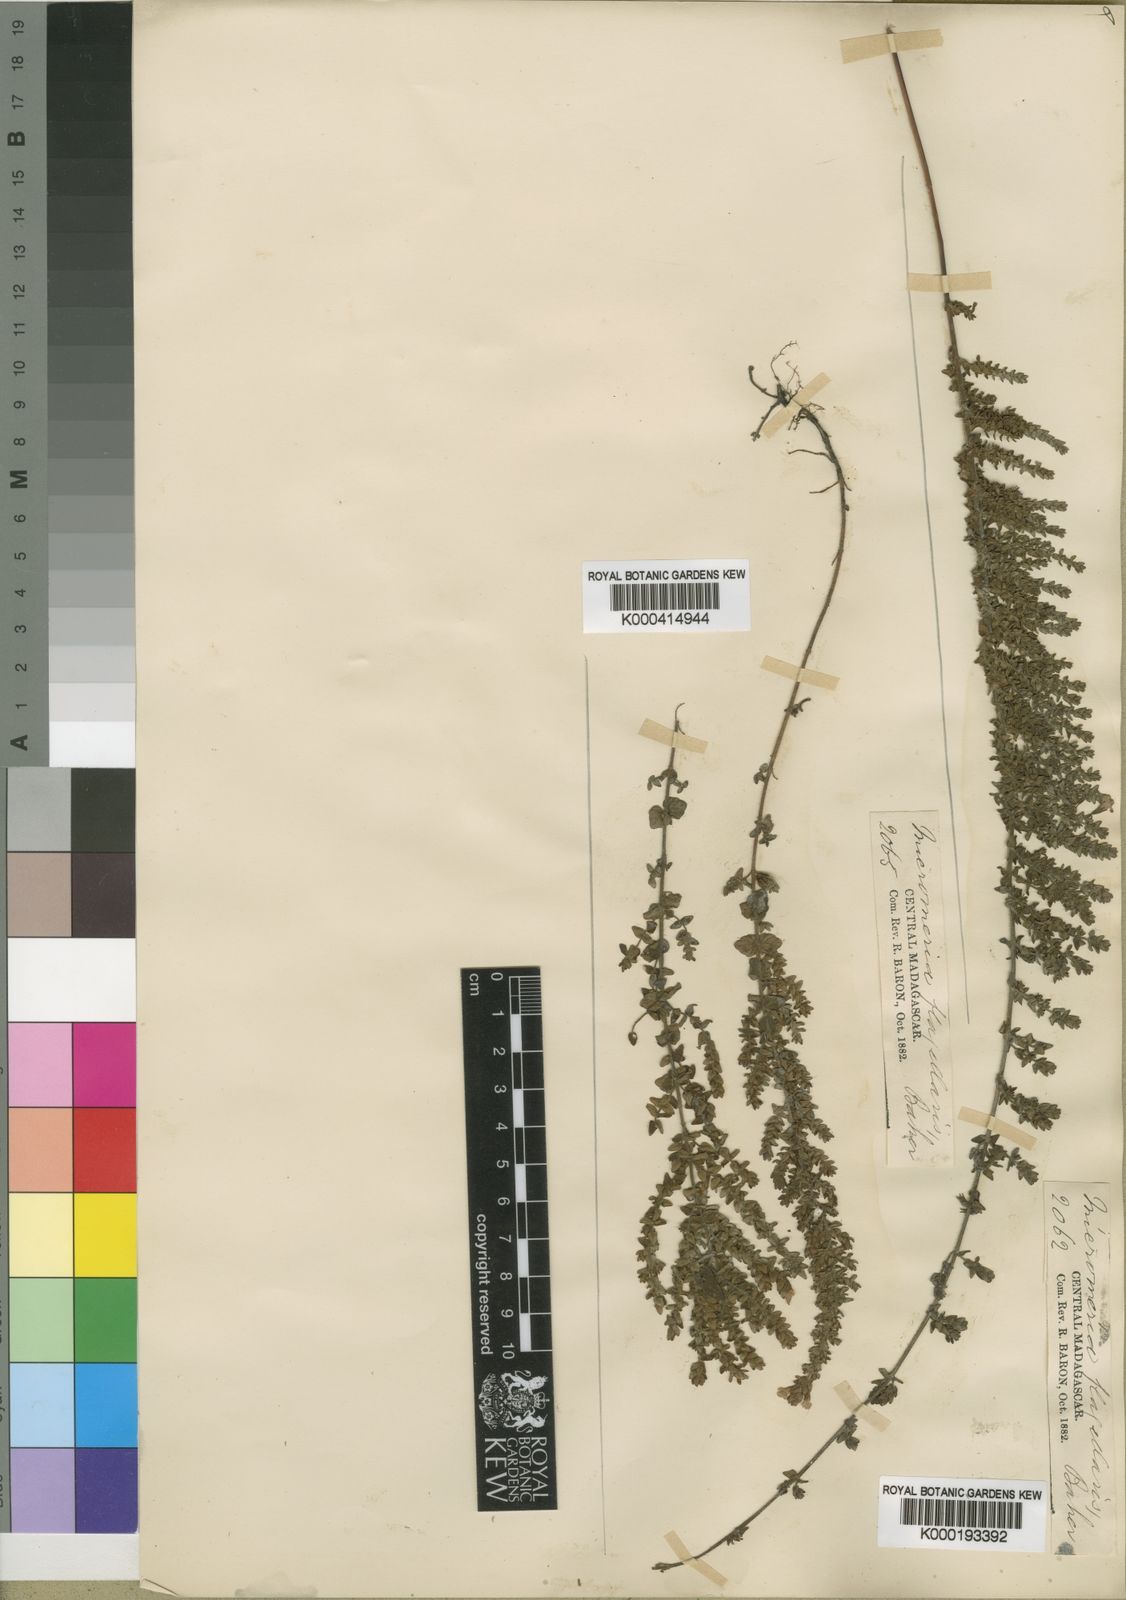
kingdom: Plantae
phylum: Tracheophyta
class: Magnoliopsida
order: Lamiales
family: Lamiaceae
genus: Micromeria
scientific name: Micromeria flagellaris
